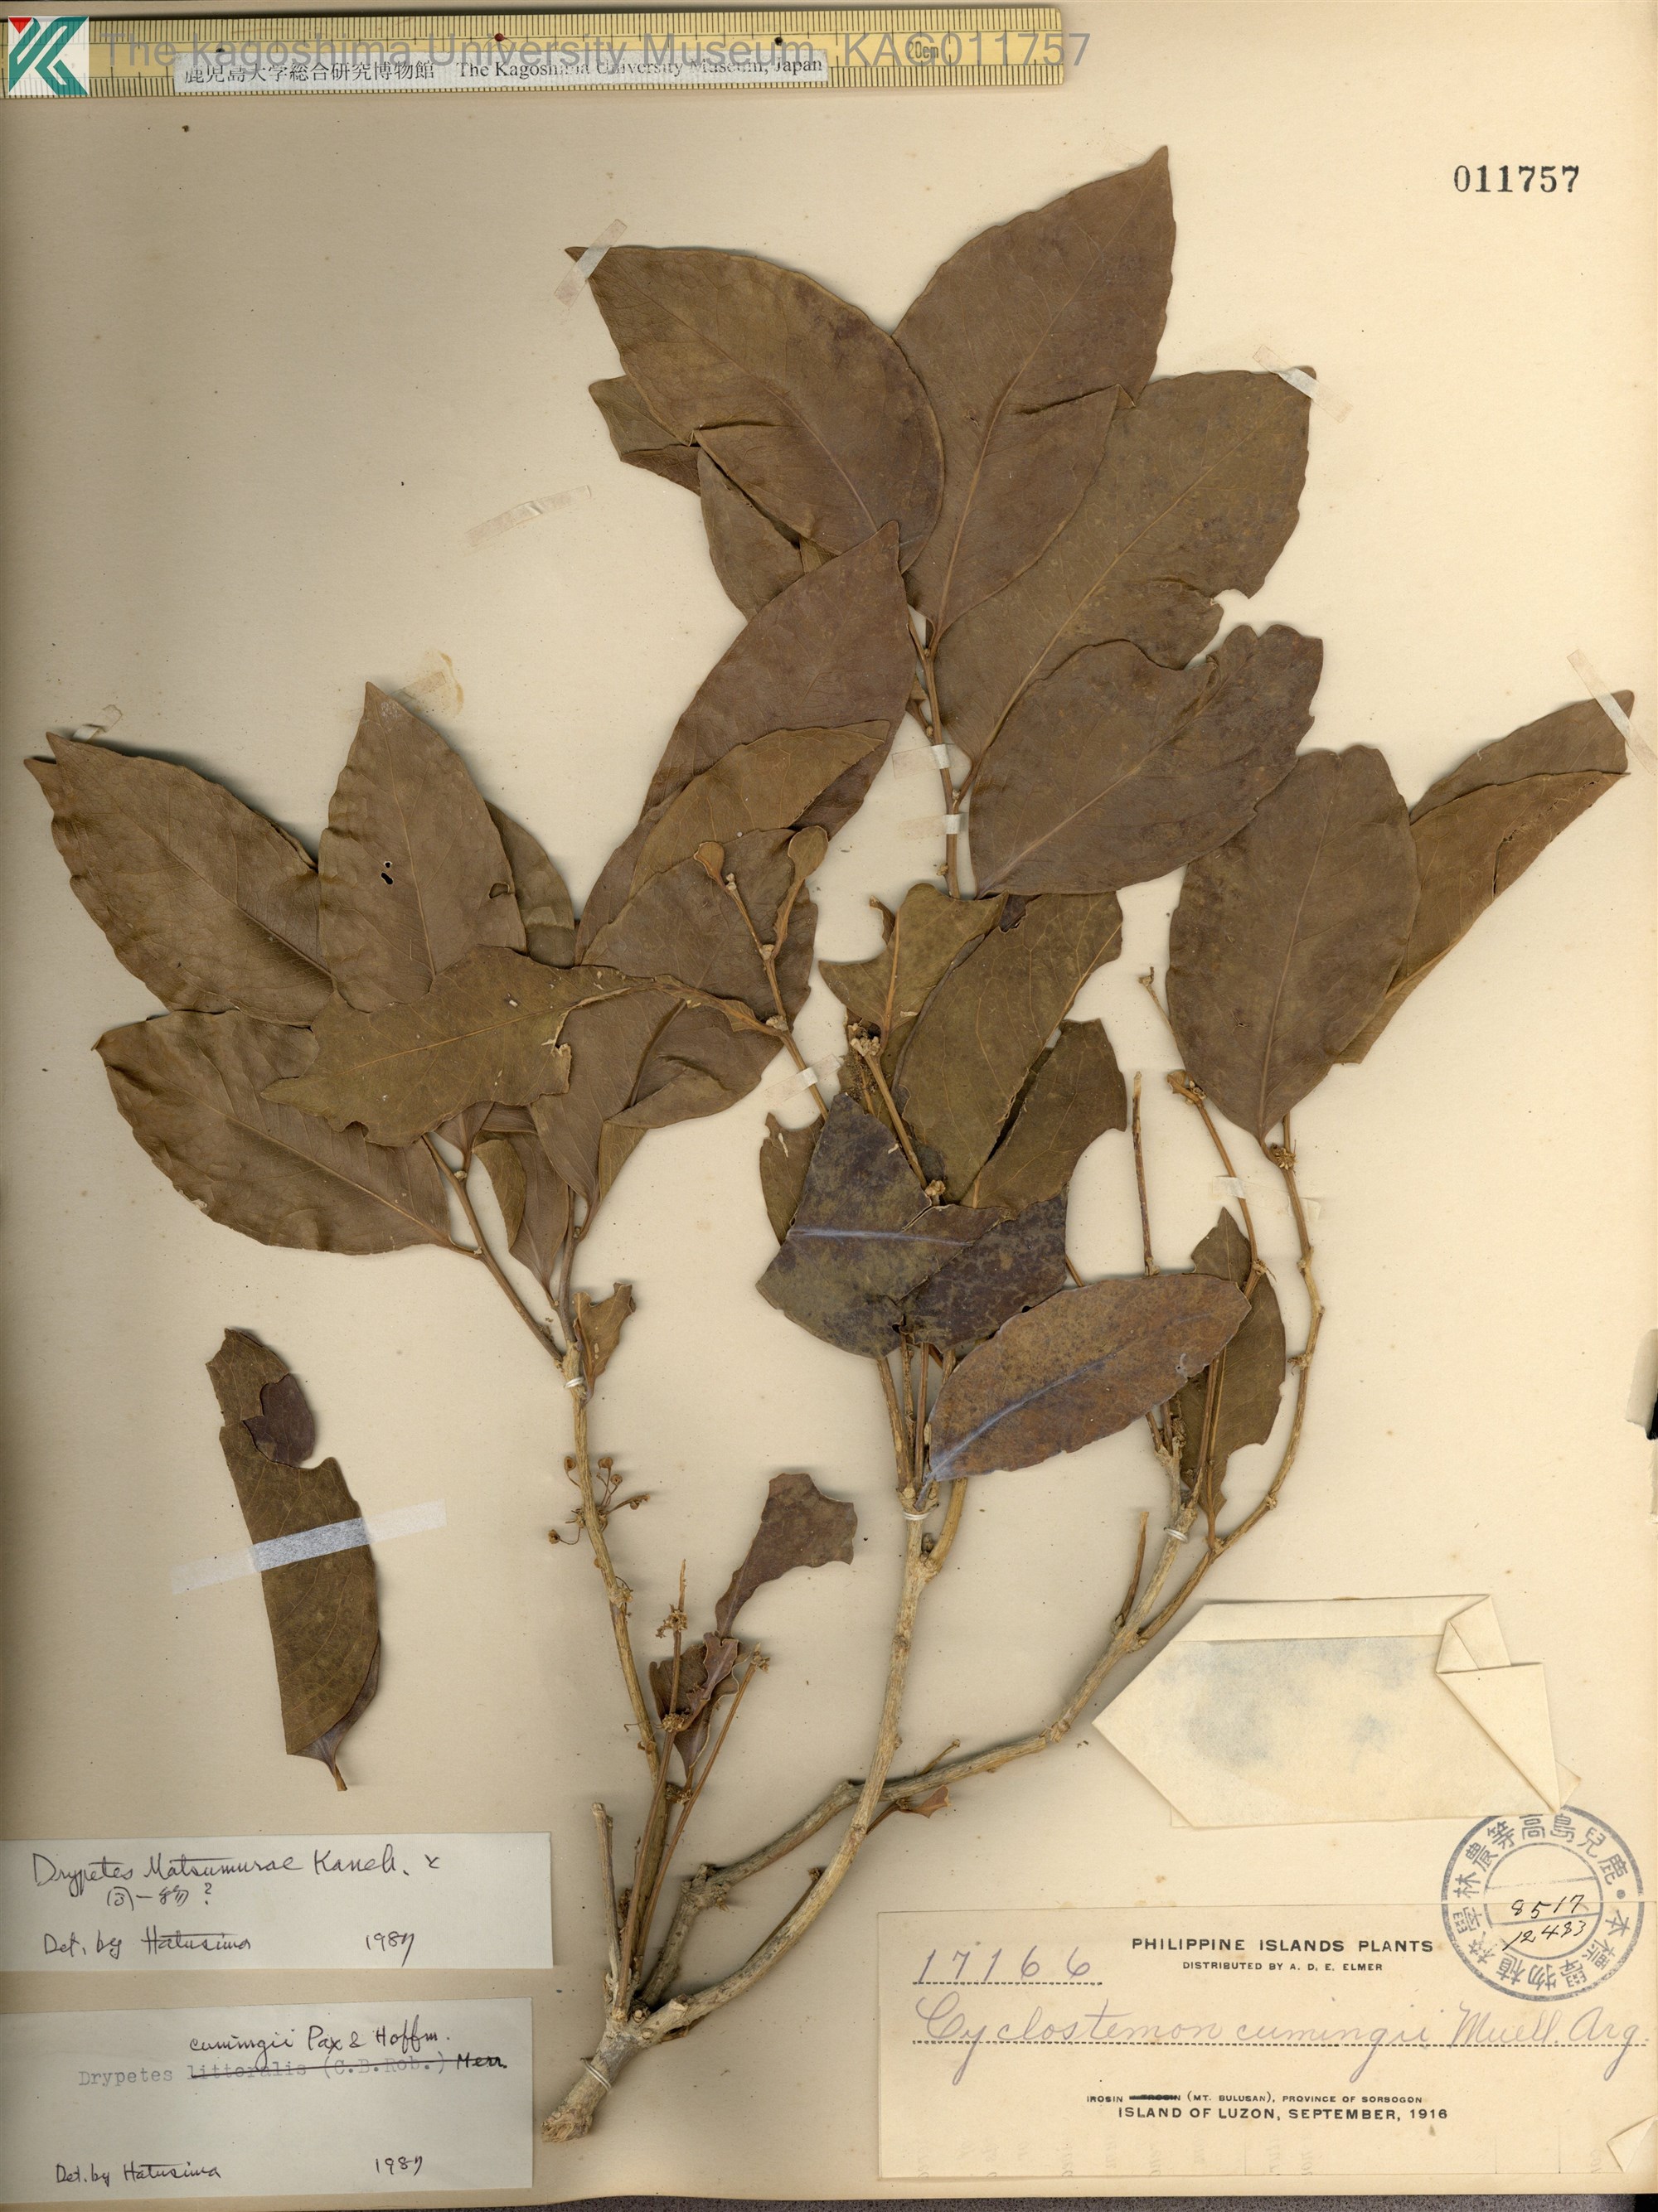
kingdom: Plantae
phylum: Tracheophyta
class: Magnoliopsida
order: Malpighiales
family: Putranjivaceae
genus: Drypetes
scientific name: Drypetes cumingii
